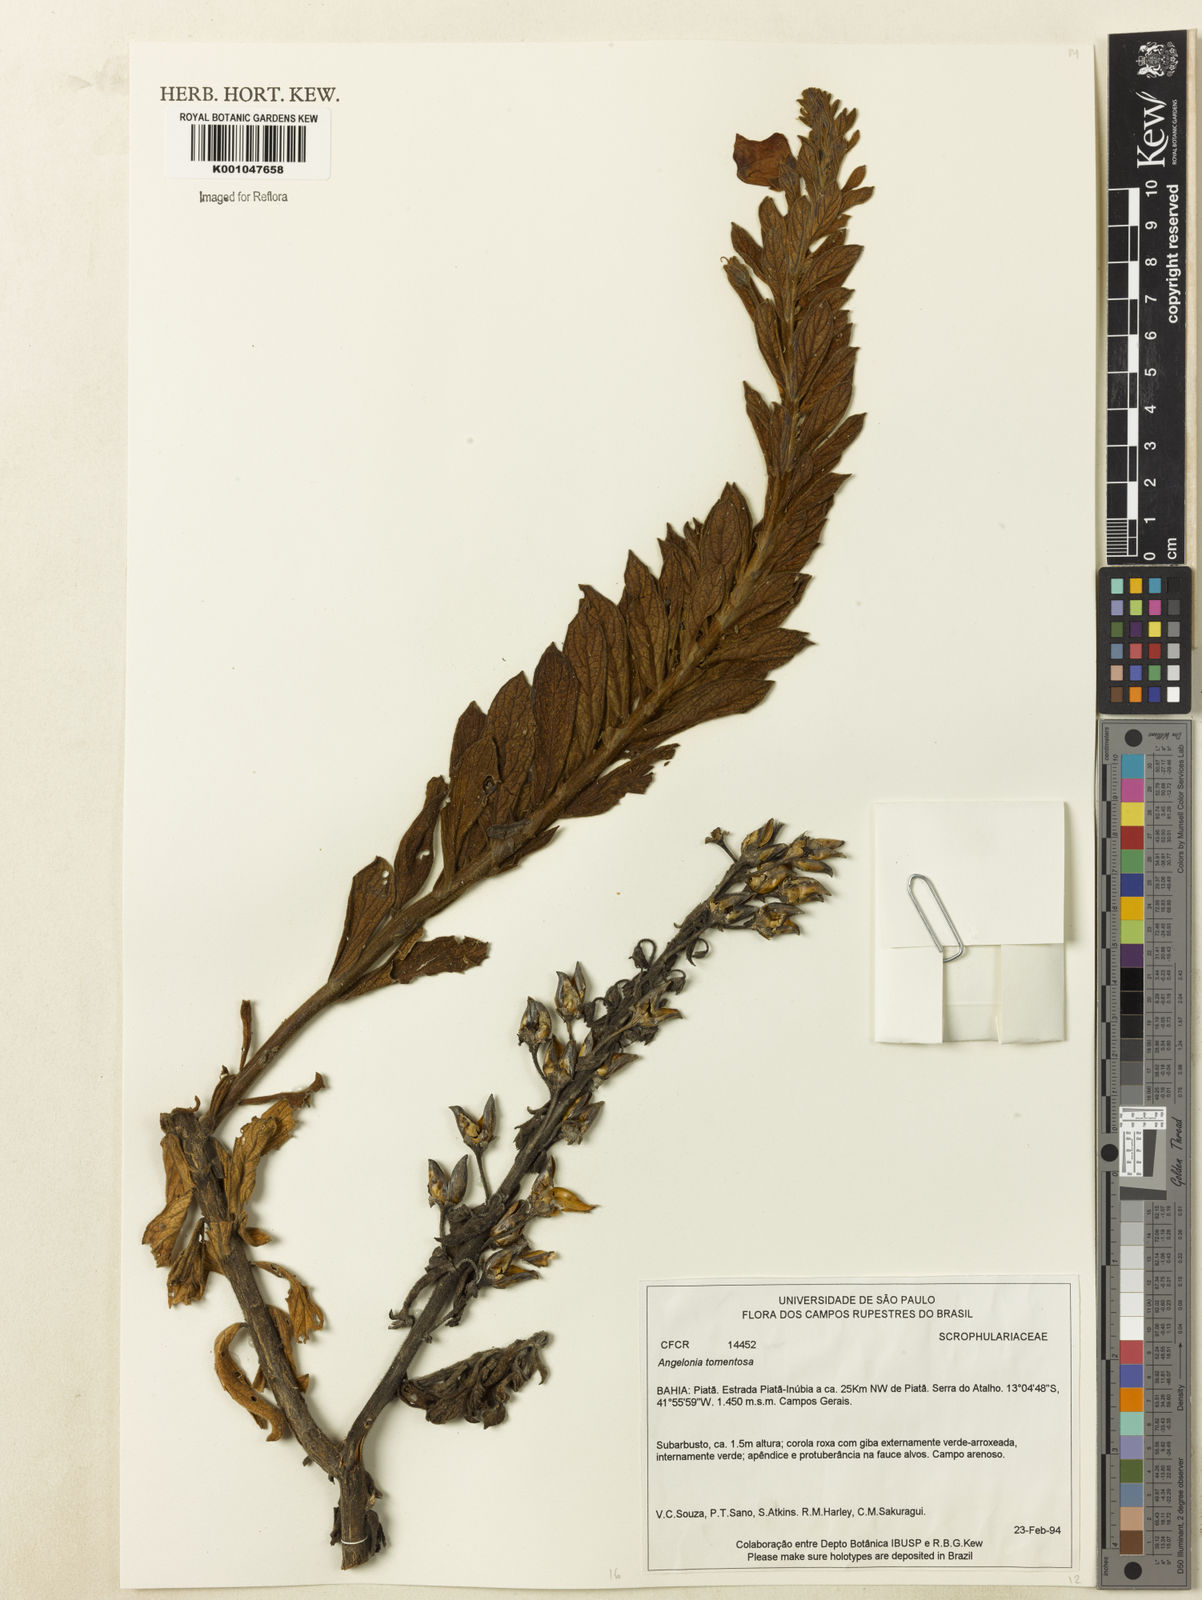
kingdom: Plantae
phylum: Tracheophyta
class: Magnoliopsida
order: Lamiales
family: Plantaginaceae
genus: Angelonia
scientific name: Angelonia tomentosa
